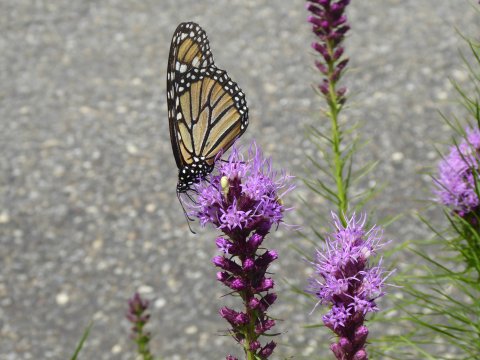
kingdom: Animalia
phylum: Arthropoda
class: Insecta
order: Lepidoptera
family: Nymphalidae
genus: Danaus
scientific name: Danaus plexippus
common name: Monarch
